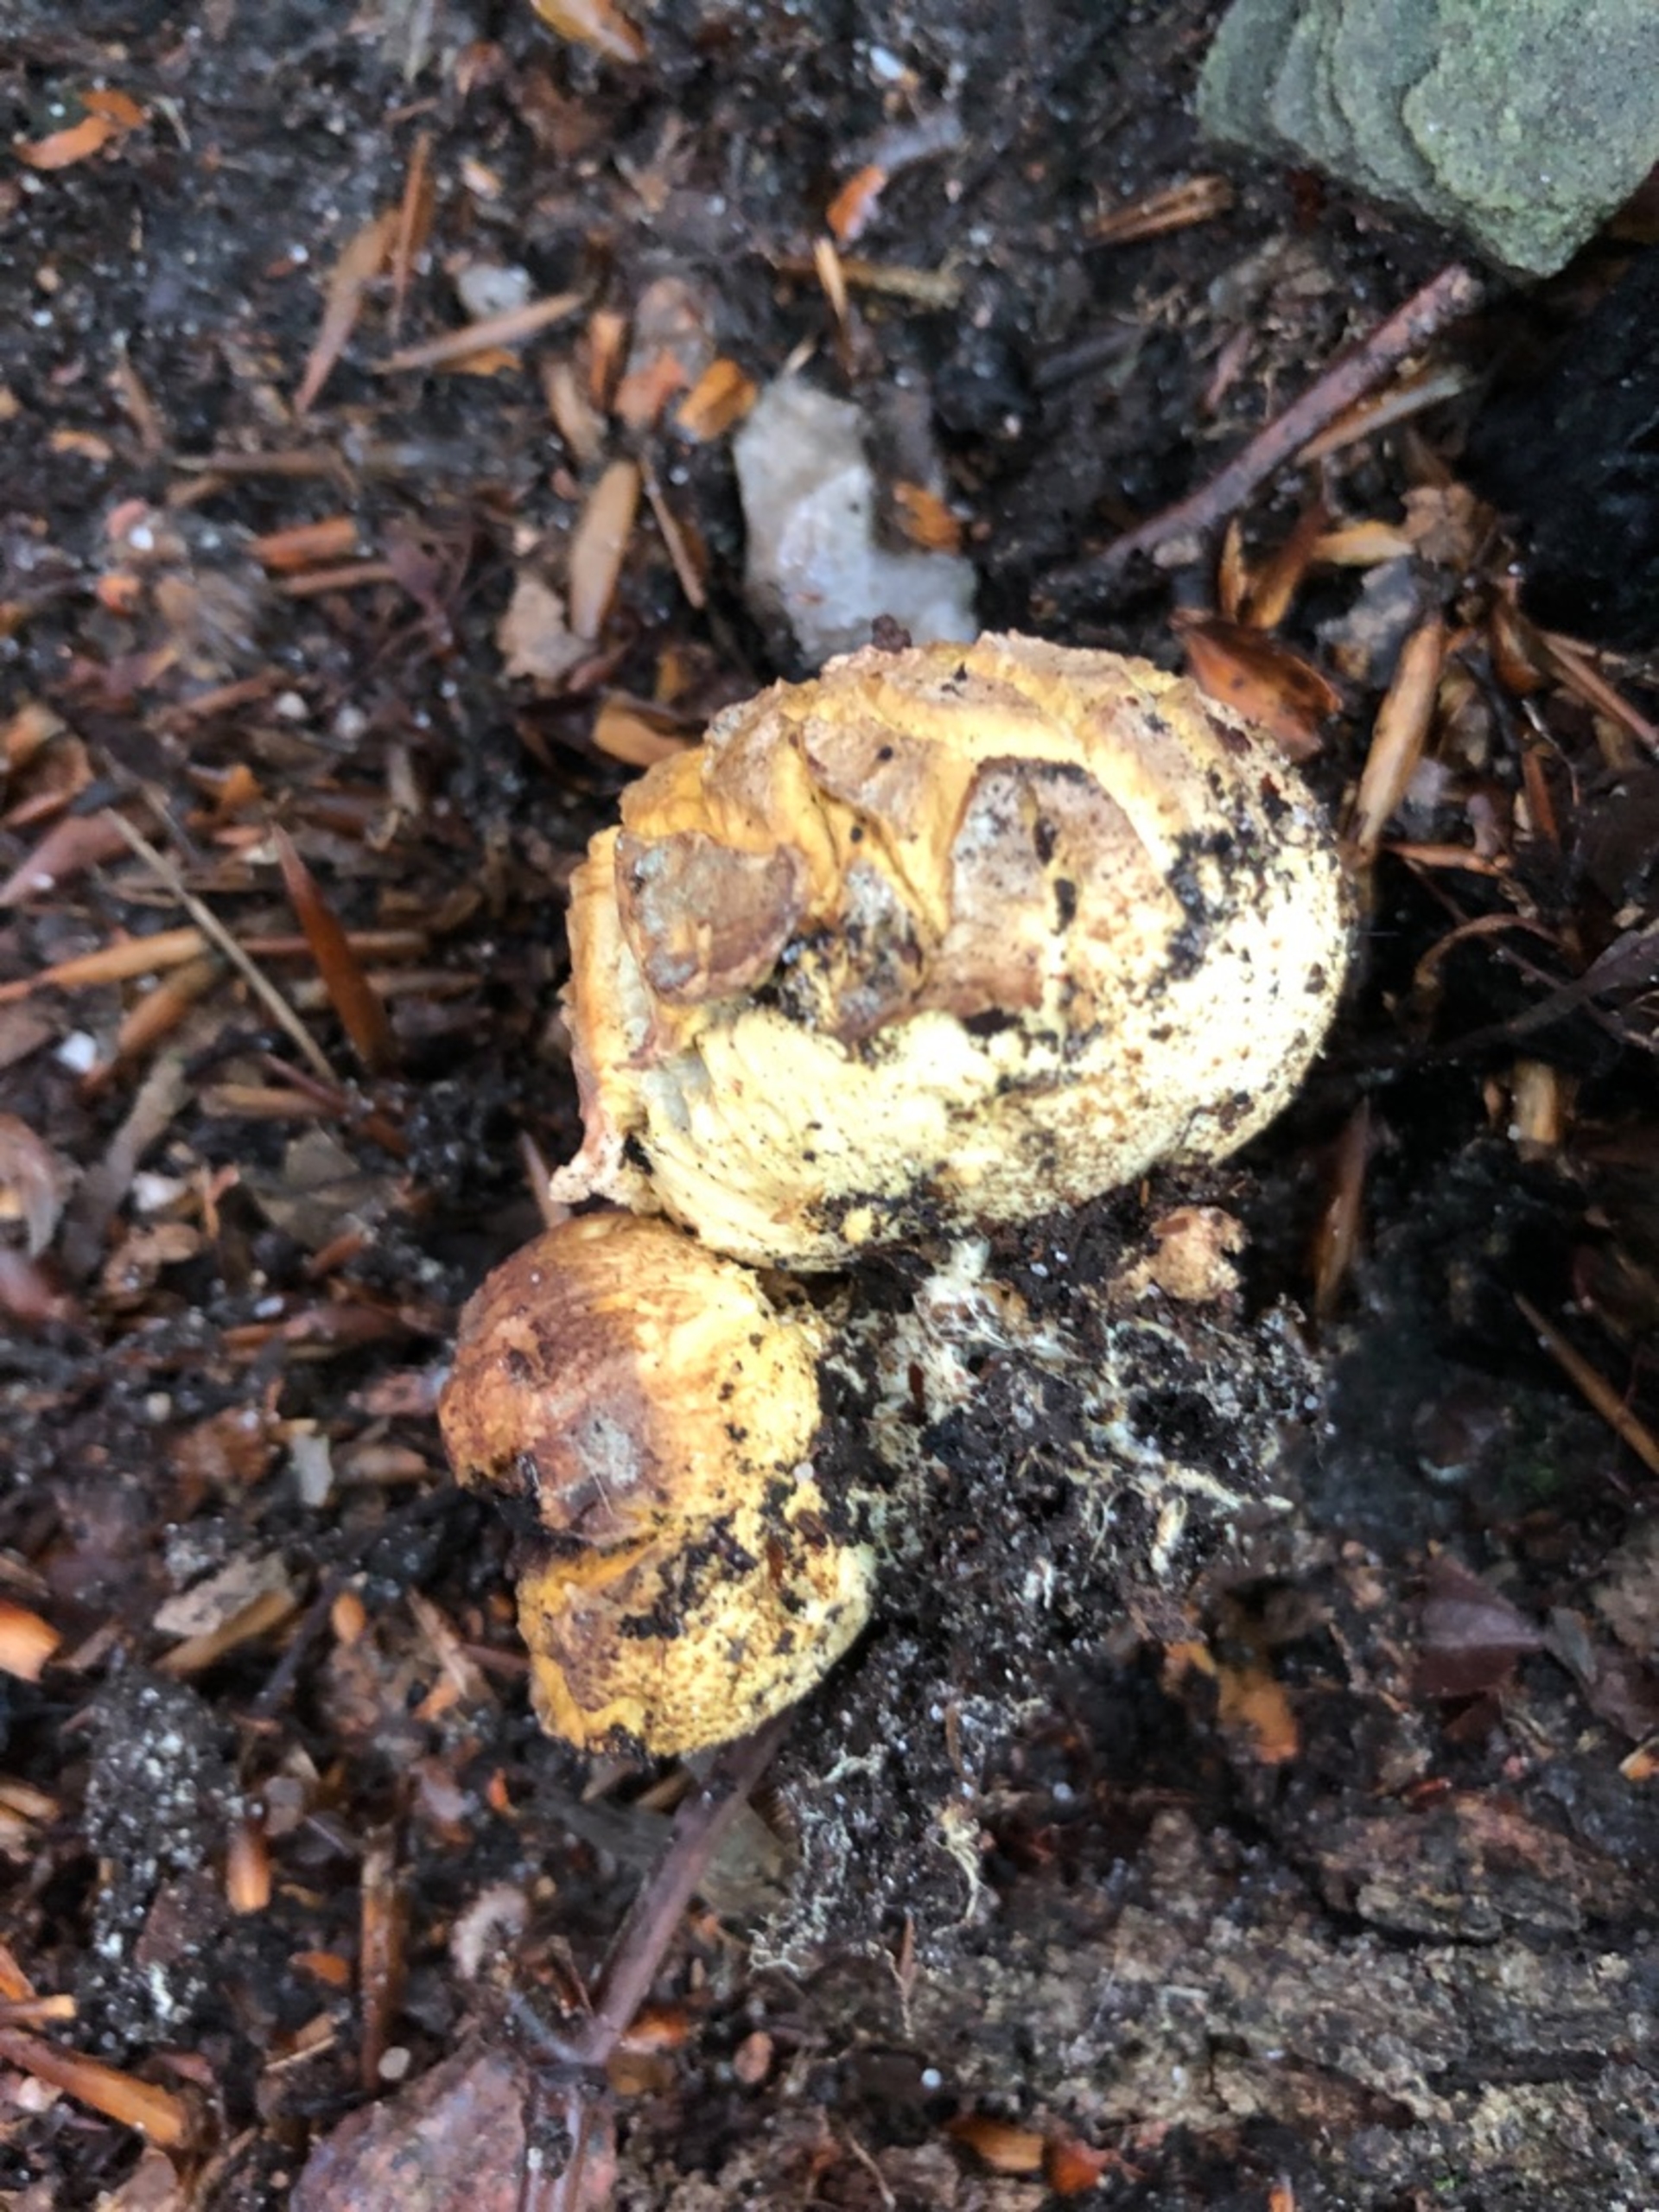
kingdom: Fungi
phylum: Basidiomycota
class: Agaricomycetes
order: Boletales
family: Sclerodermataceae
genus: Scleroderma
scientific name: Scleroderma citrinum
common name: Almindelig bruskbold
